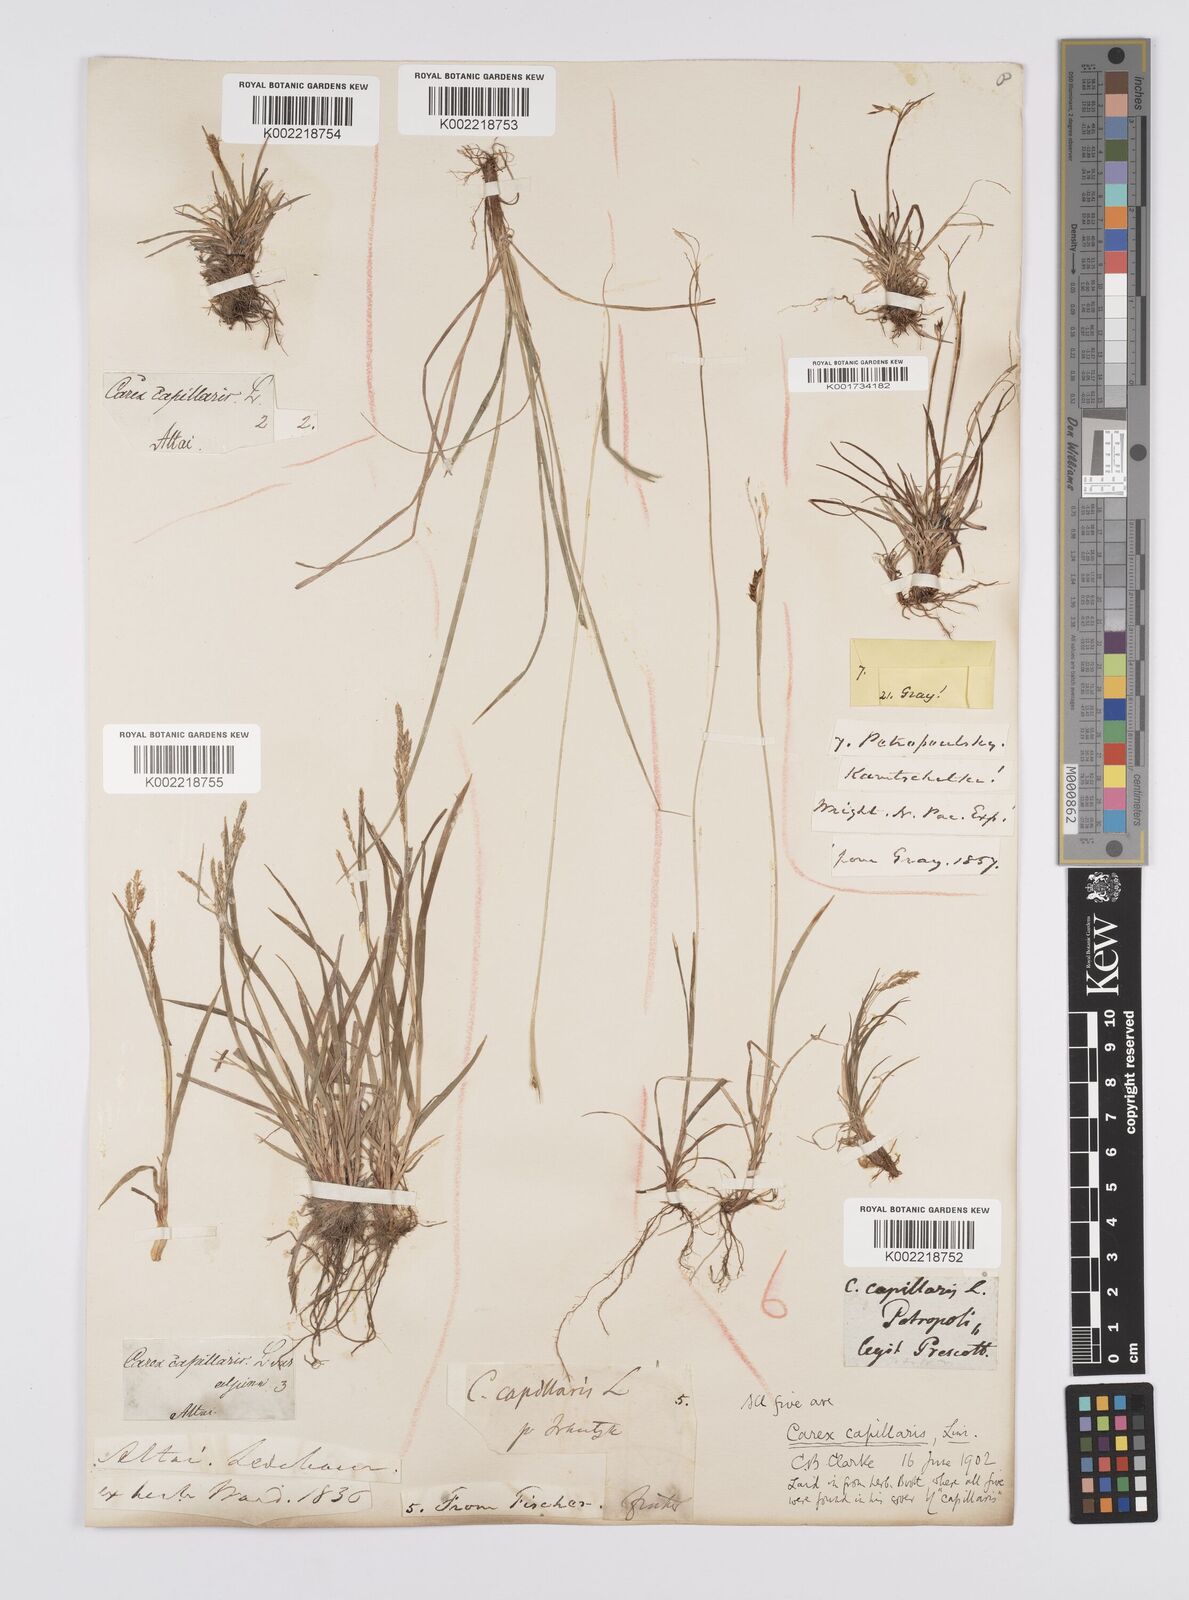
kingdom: Plantae
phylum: Tracheophyta
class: Liliopsida
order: Poales
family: Cyperaceae
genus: Carex
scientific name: Carex capillaris
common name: Hair sedge
